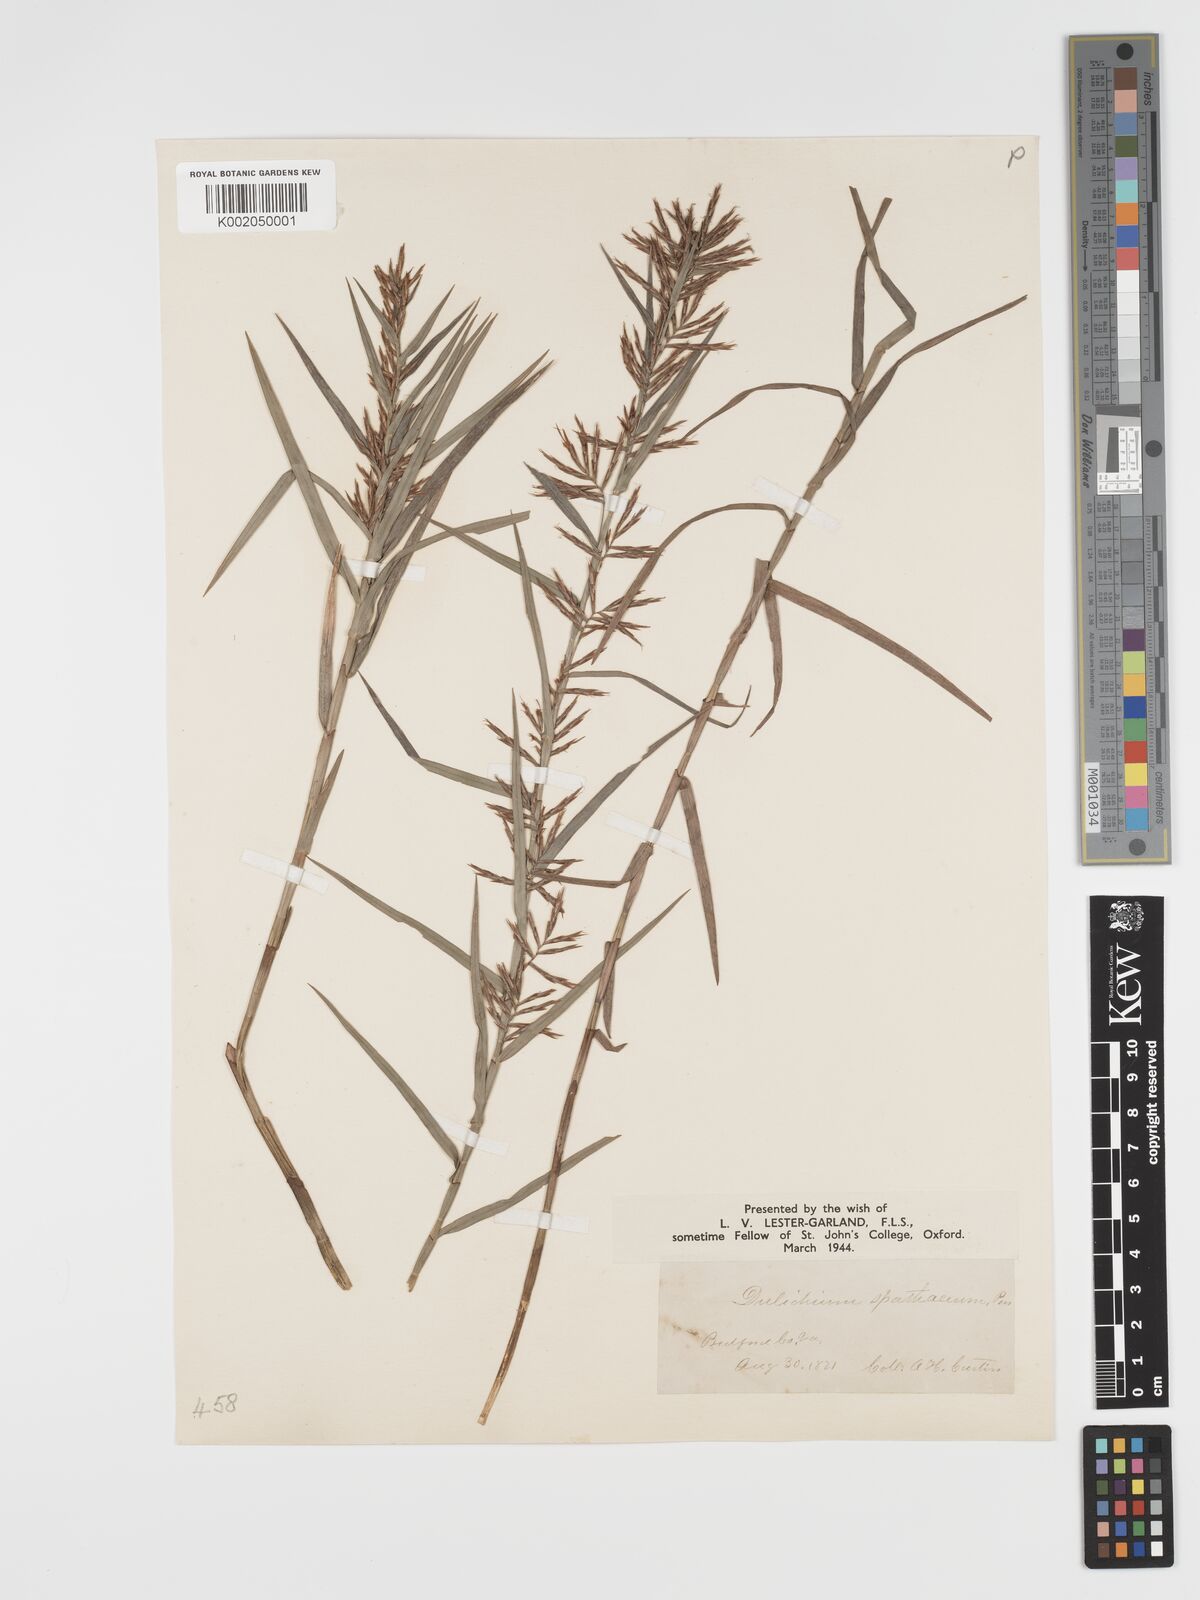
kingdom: Plantae
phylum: Tracheophyta
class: Liliopsida
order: Poales
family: Cyperaceae
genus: Dulichium
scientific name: Dulichium arundinaceum
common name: Three-way sedge
